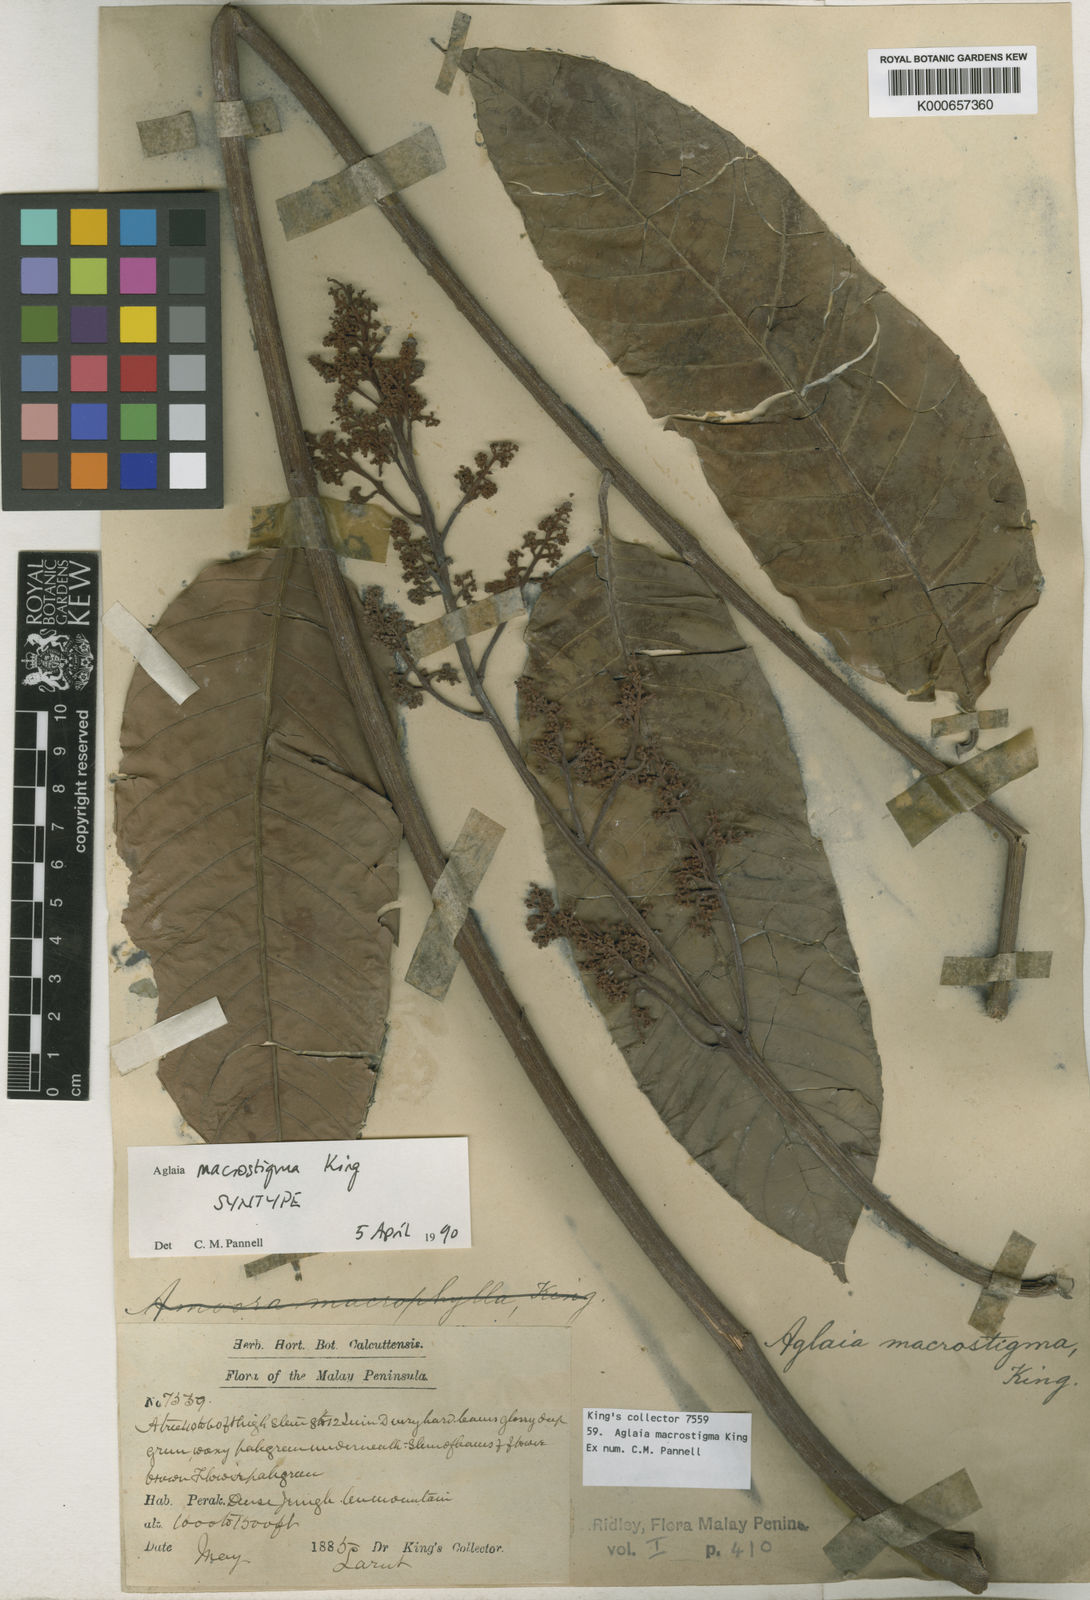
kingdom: Plantae
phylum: Tracheophyta
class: Magnoliopsida
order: Sapindales
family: Meliaceae
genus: Aglaia
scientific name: Aglaia macrostigma
